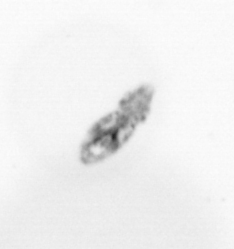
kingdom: Animalia
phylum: Arthropoda
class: Copepoda
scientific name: Copepoda
